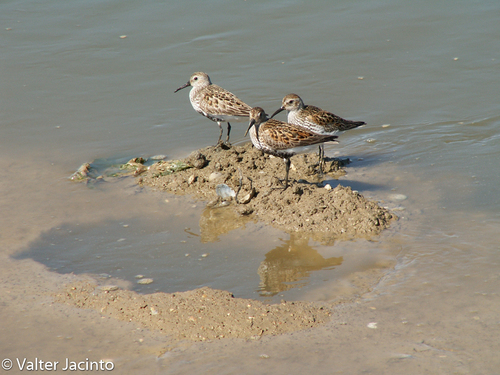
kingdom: Animalia
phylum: Chordata
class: Aves
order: Charadriiformes
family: Scolopacidae
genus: Calidris
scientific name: Calidris alpina
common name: Dunlin
